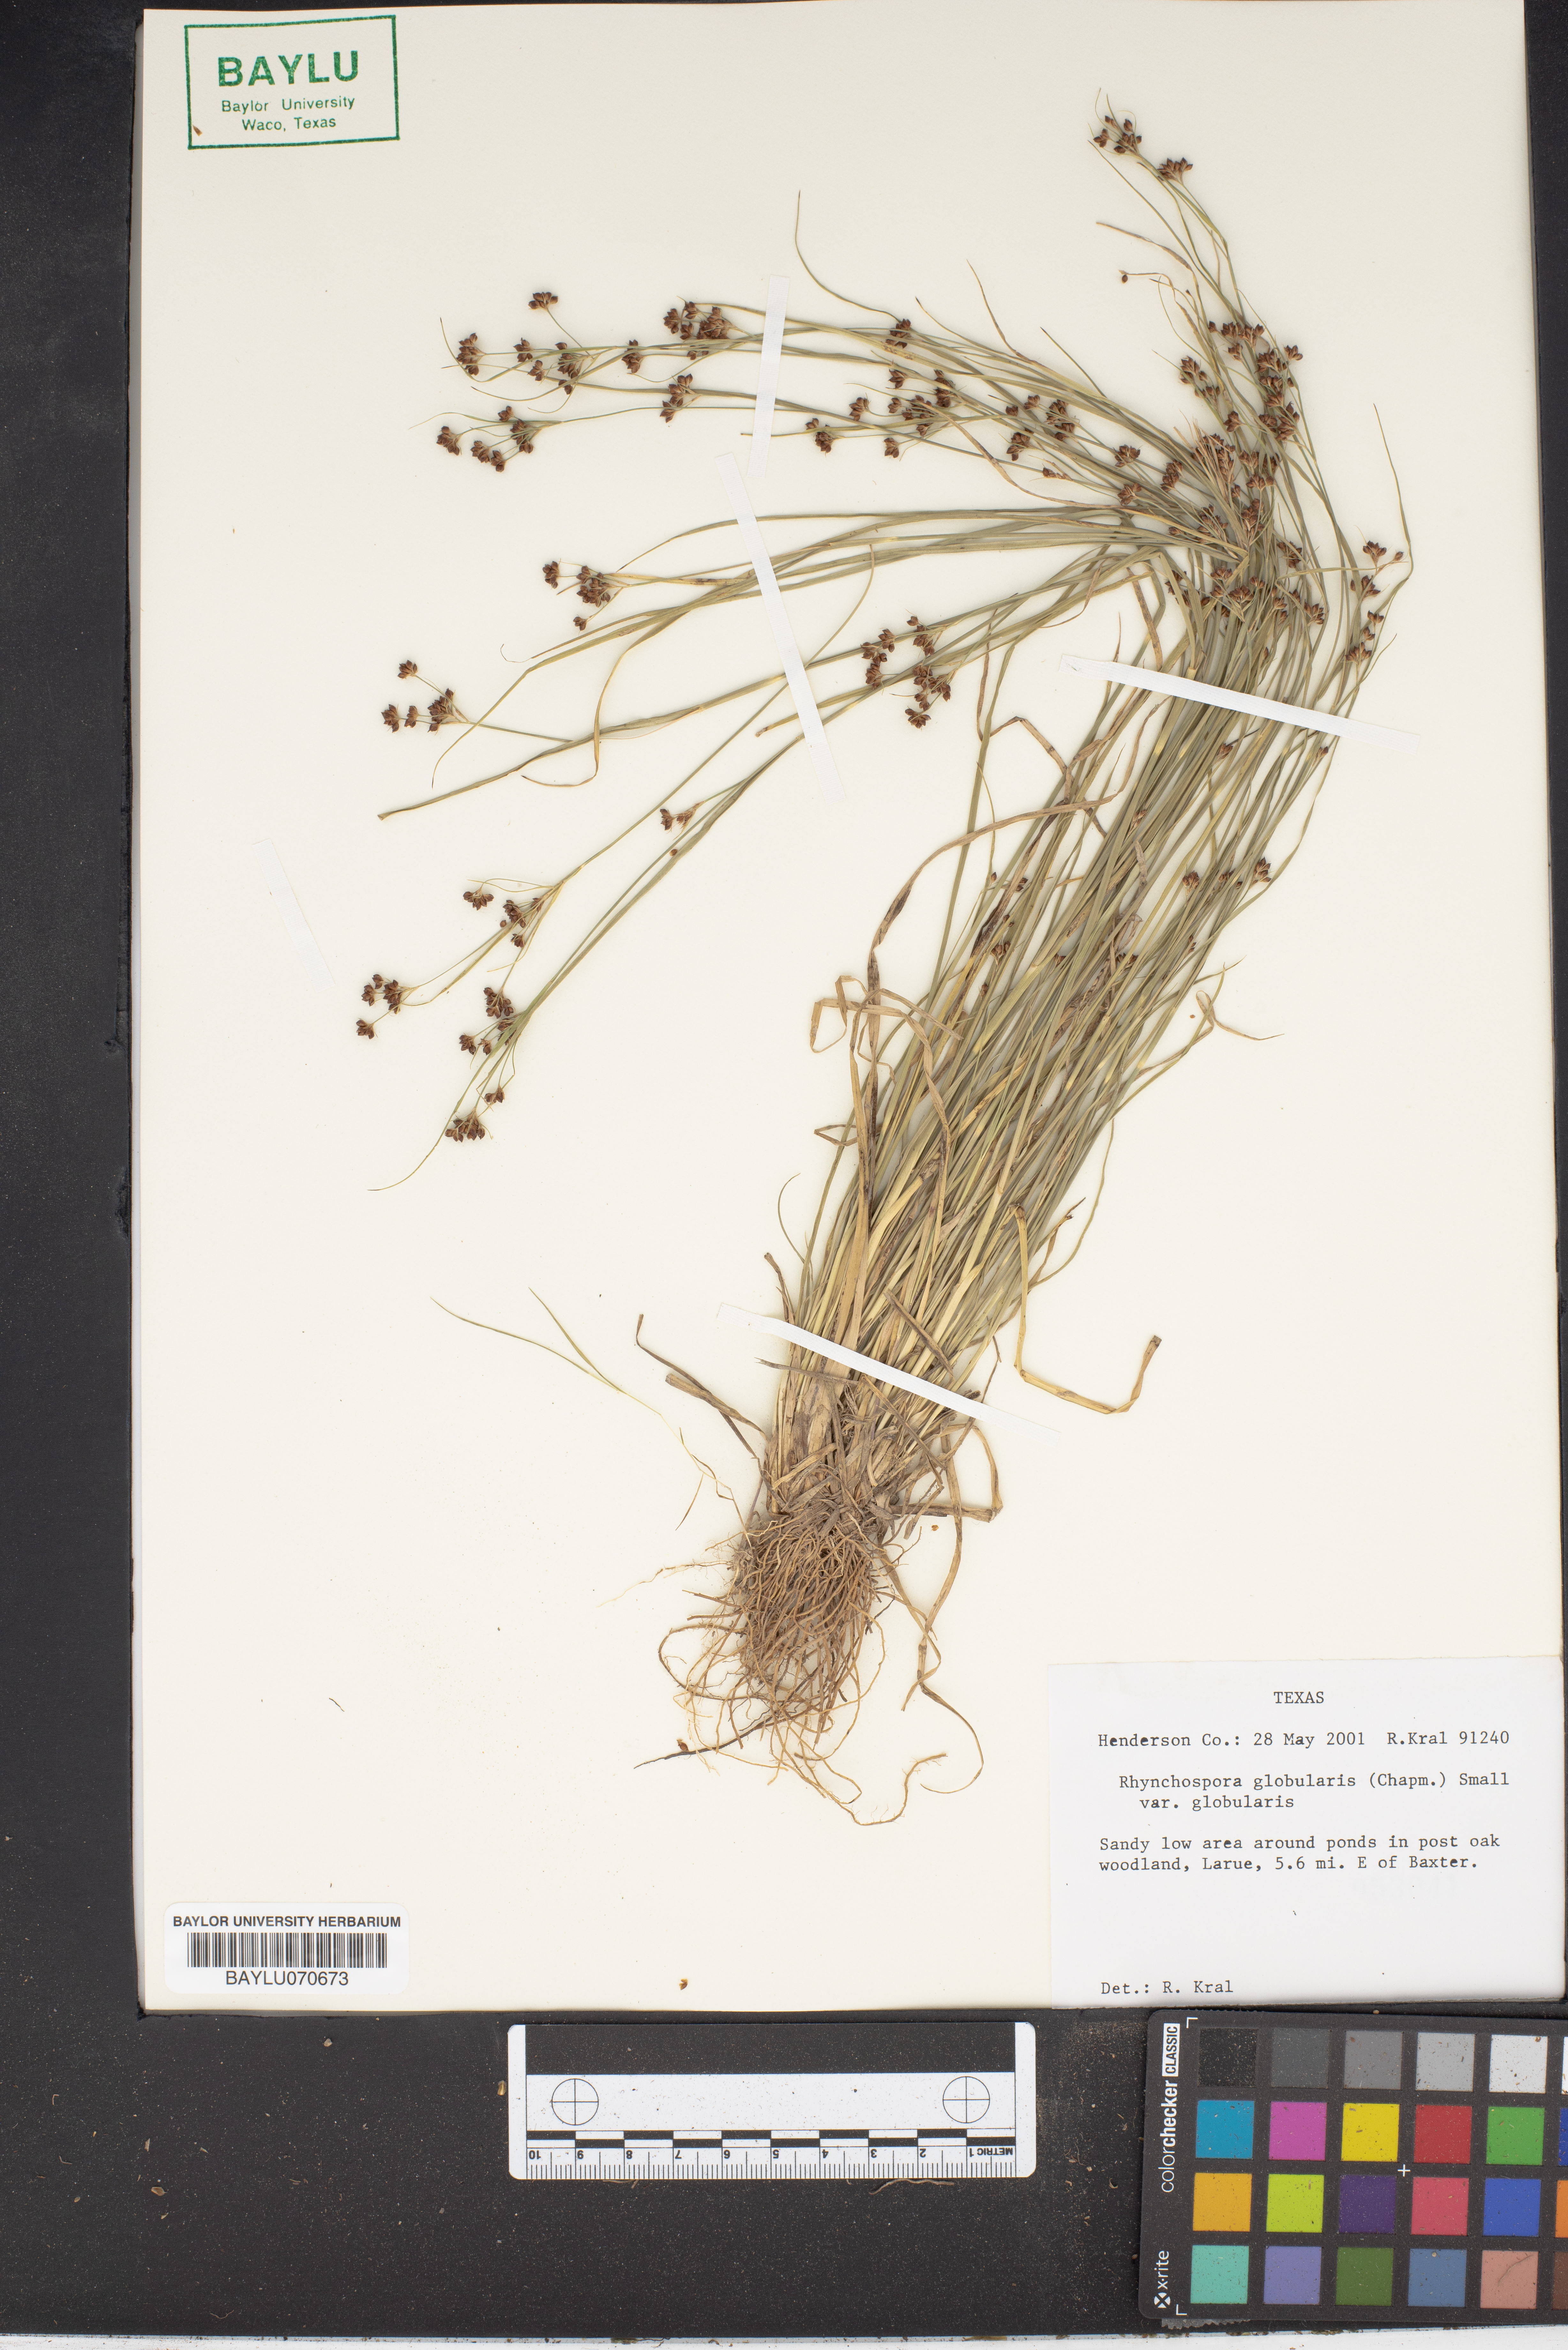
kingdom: Plantae
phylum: Tracheophyta
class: Liliopsida
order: Poales
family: Cyperaceae
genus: Rhynchospora
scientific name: Rhynchospora globularis
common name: Globe beaksedge
